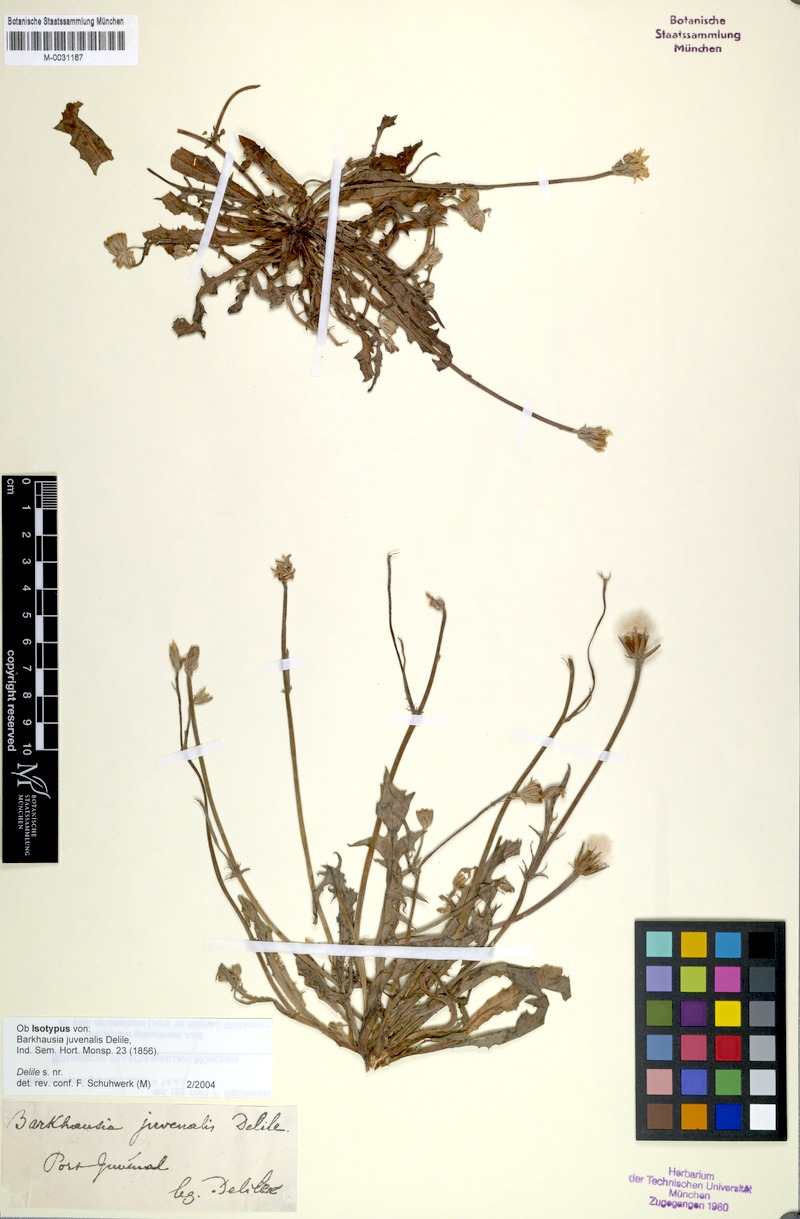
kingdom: Plantae
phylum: Tracheophyta
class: Magnoliopsida
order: Asterales
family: Asteraceae
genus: Crepis
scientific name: Crepis juvenalis
